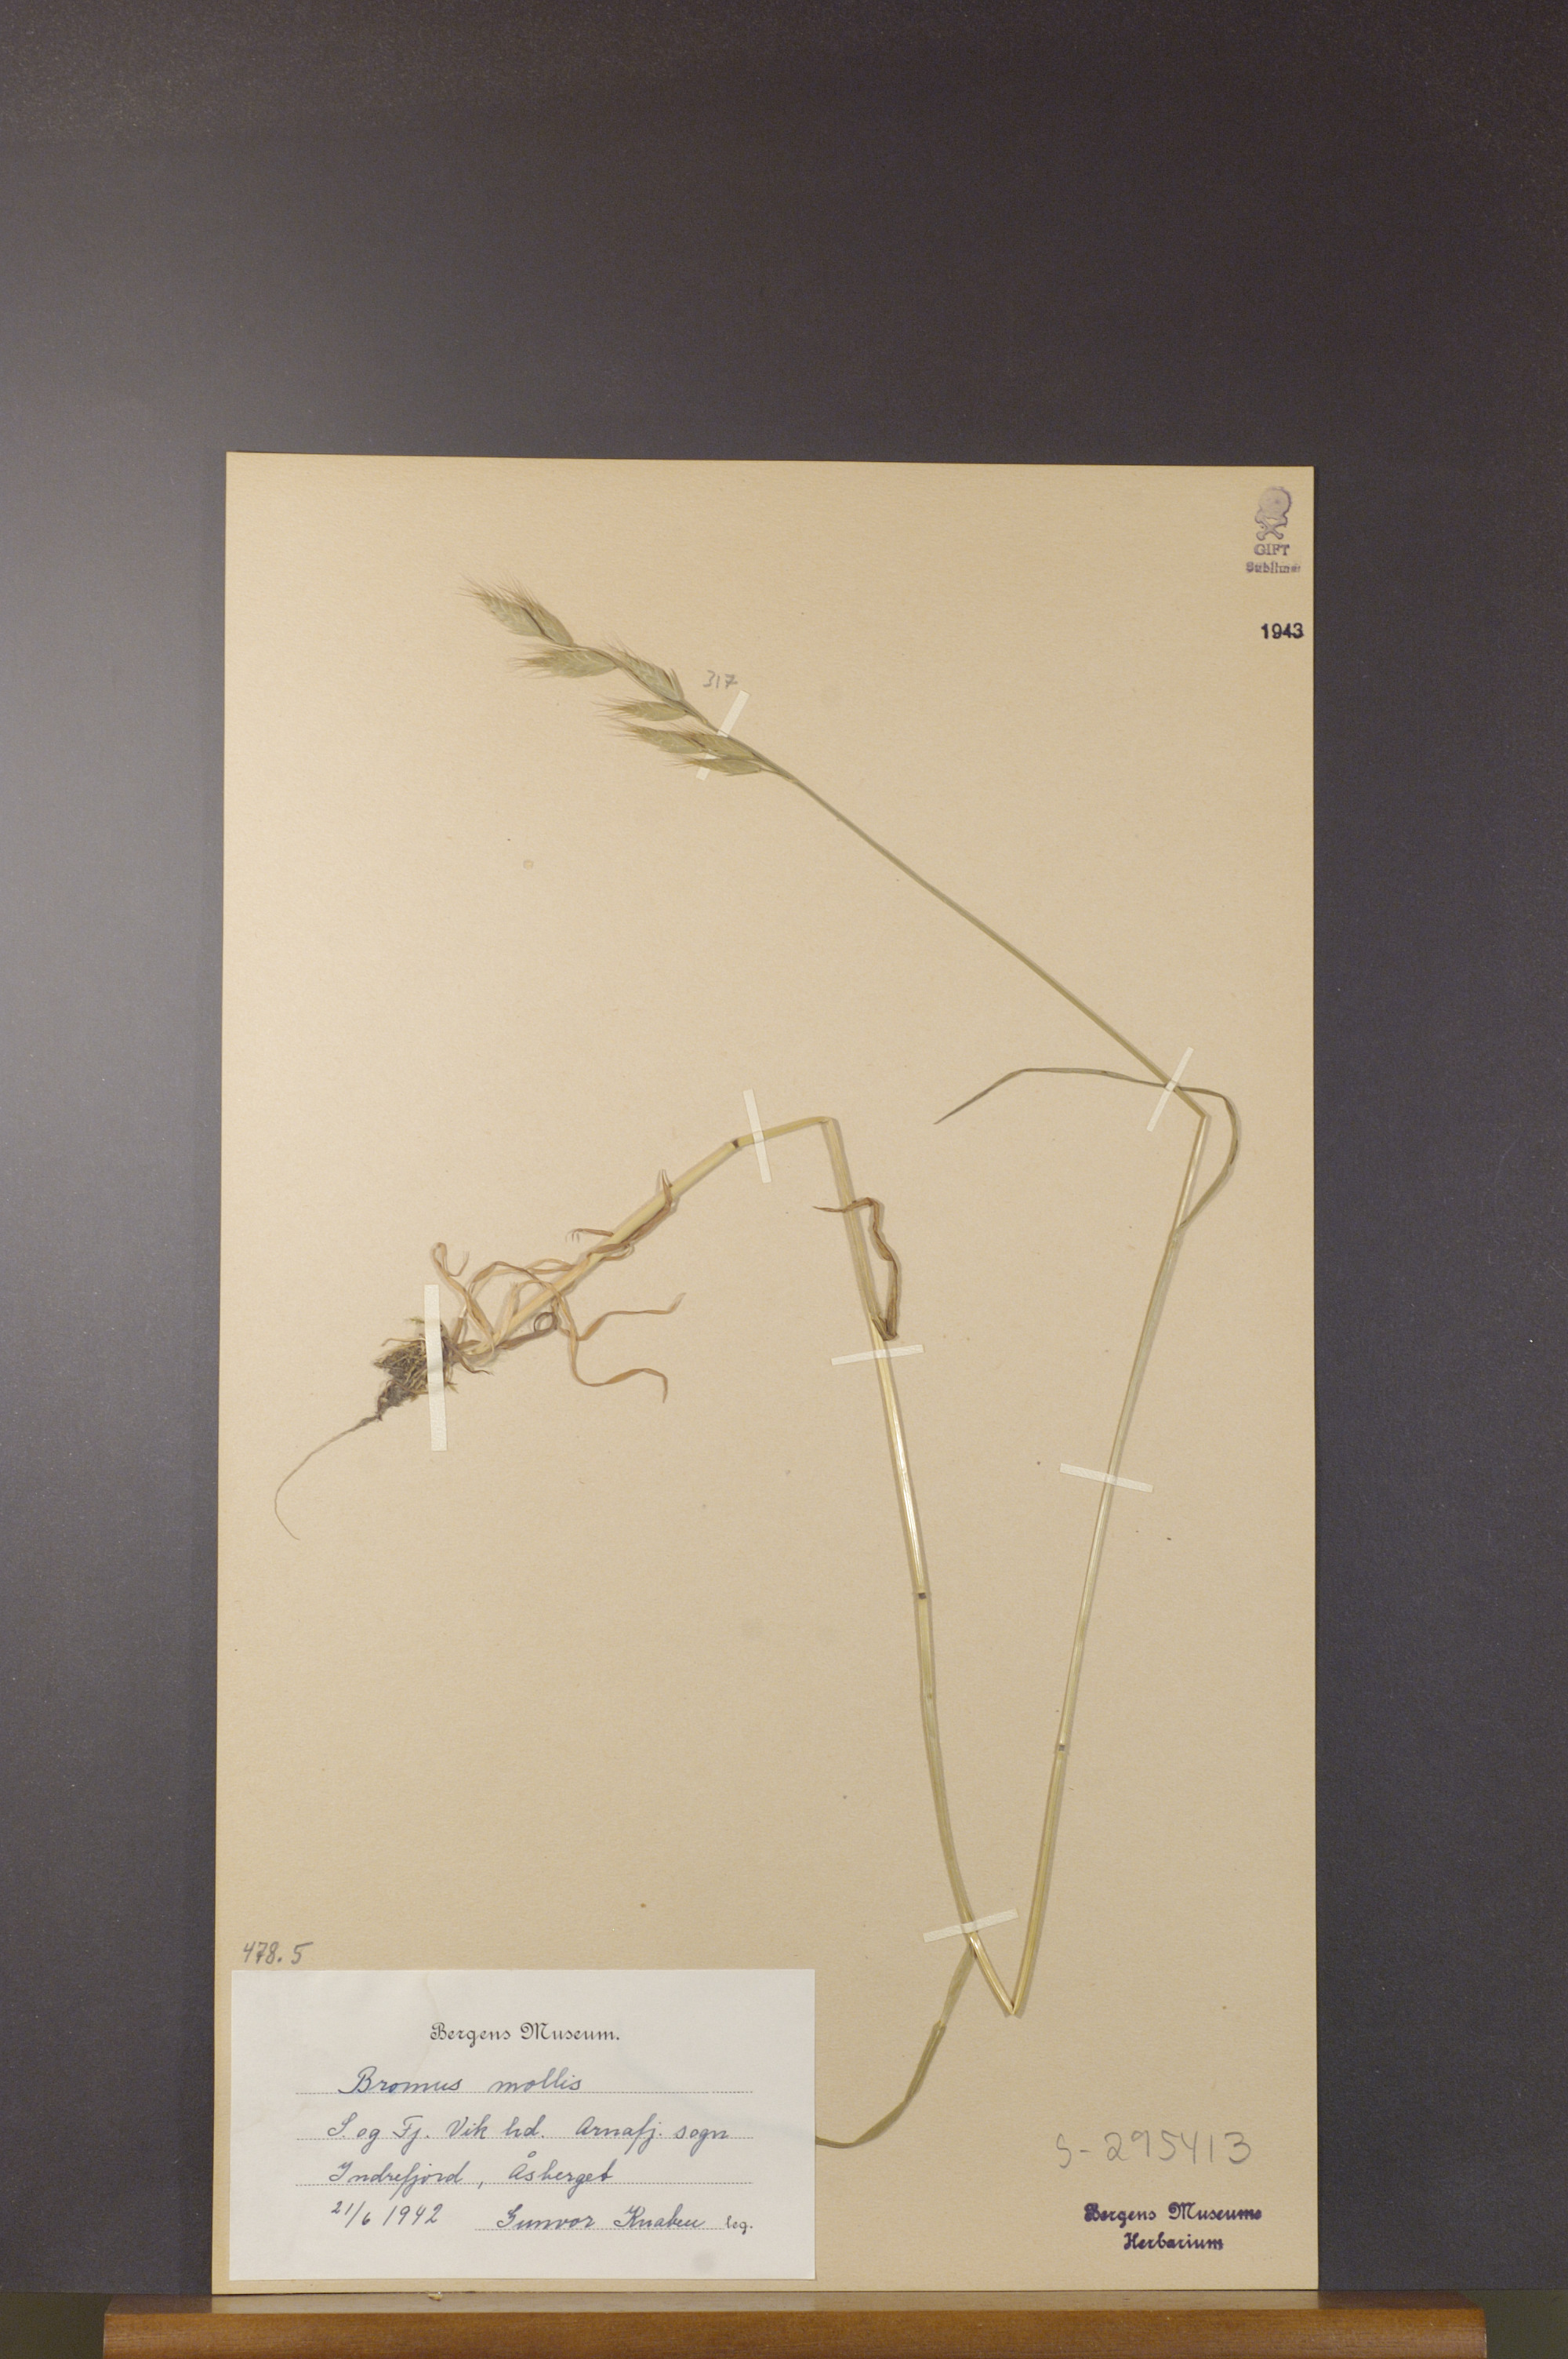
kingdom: Plantae
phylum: Tracheophyta
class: Liliopsida
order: Poales
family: Poaceae
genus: Bromus
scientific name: Bromus hordeaceus
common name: Soft brome
